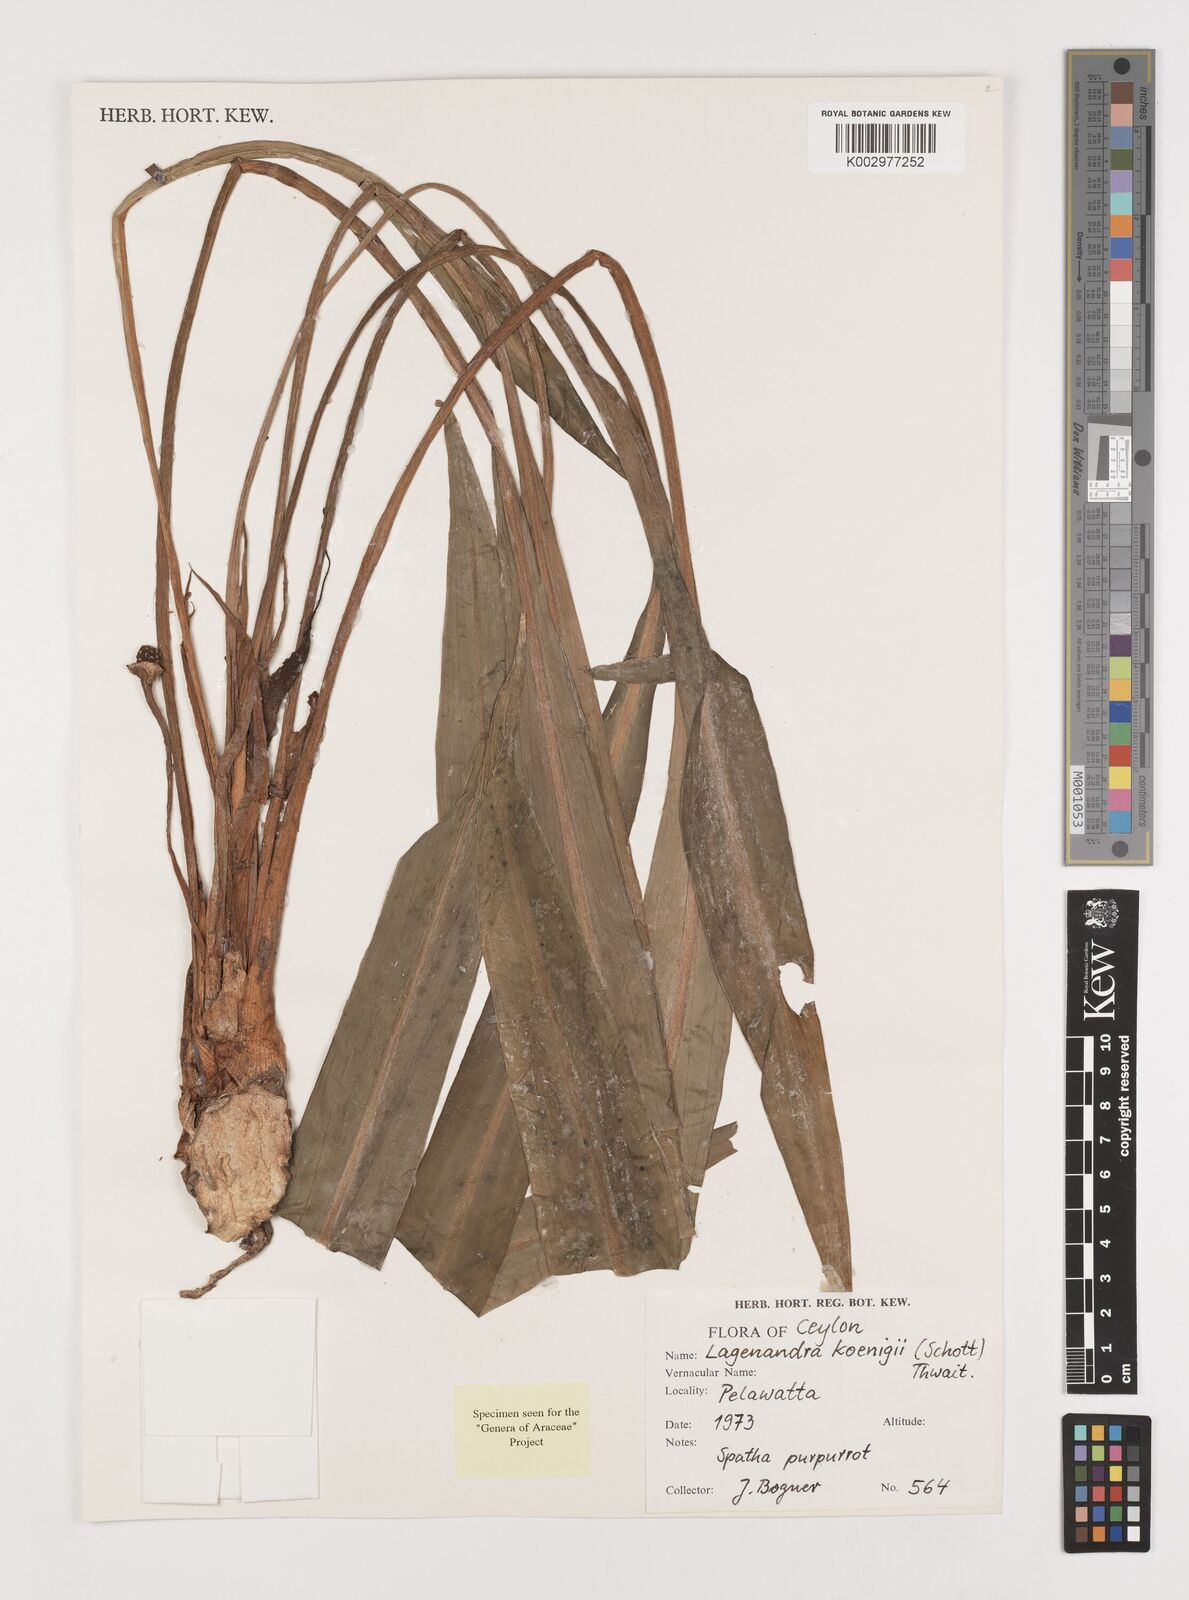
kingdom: Plantae
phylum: Tracheophyta
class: Liliopsida
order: Alismatales
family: Araceae
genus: Lagenandra
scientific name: Lagenandra koenigii
